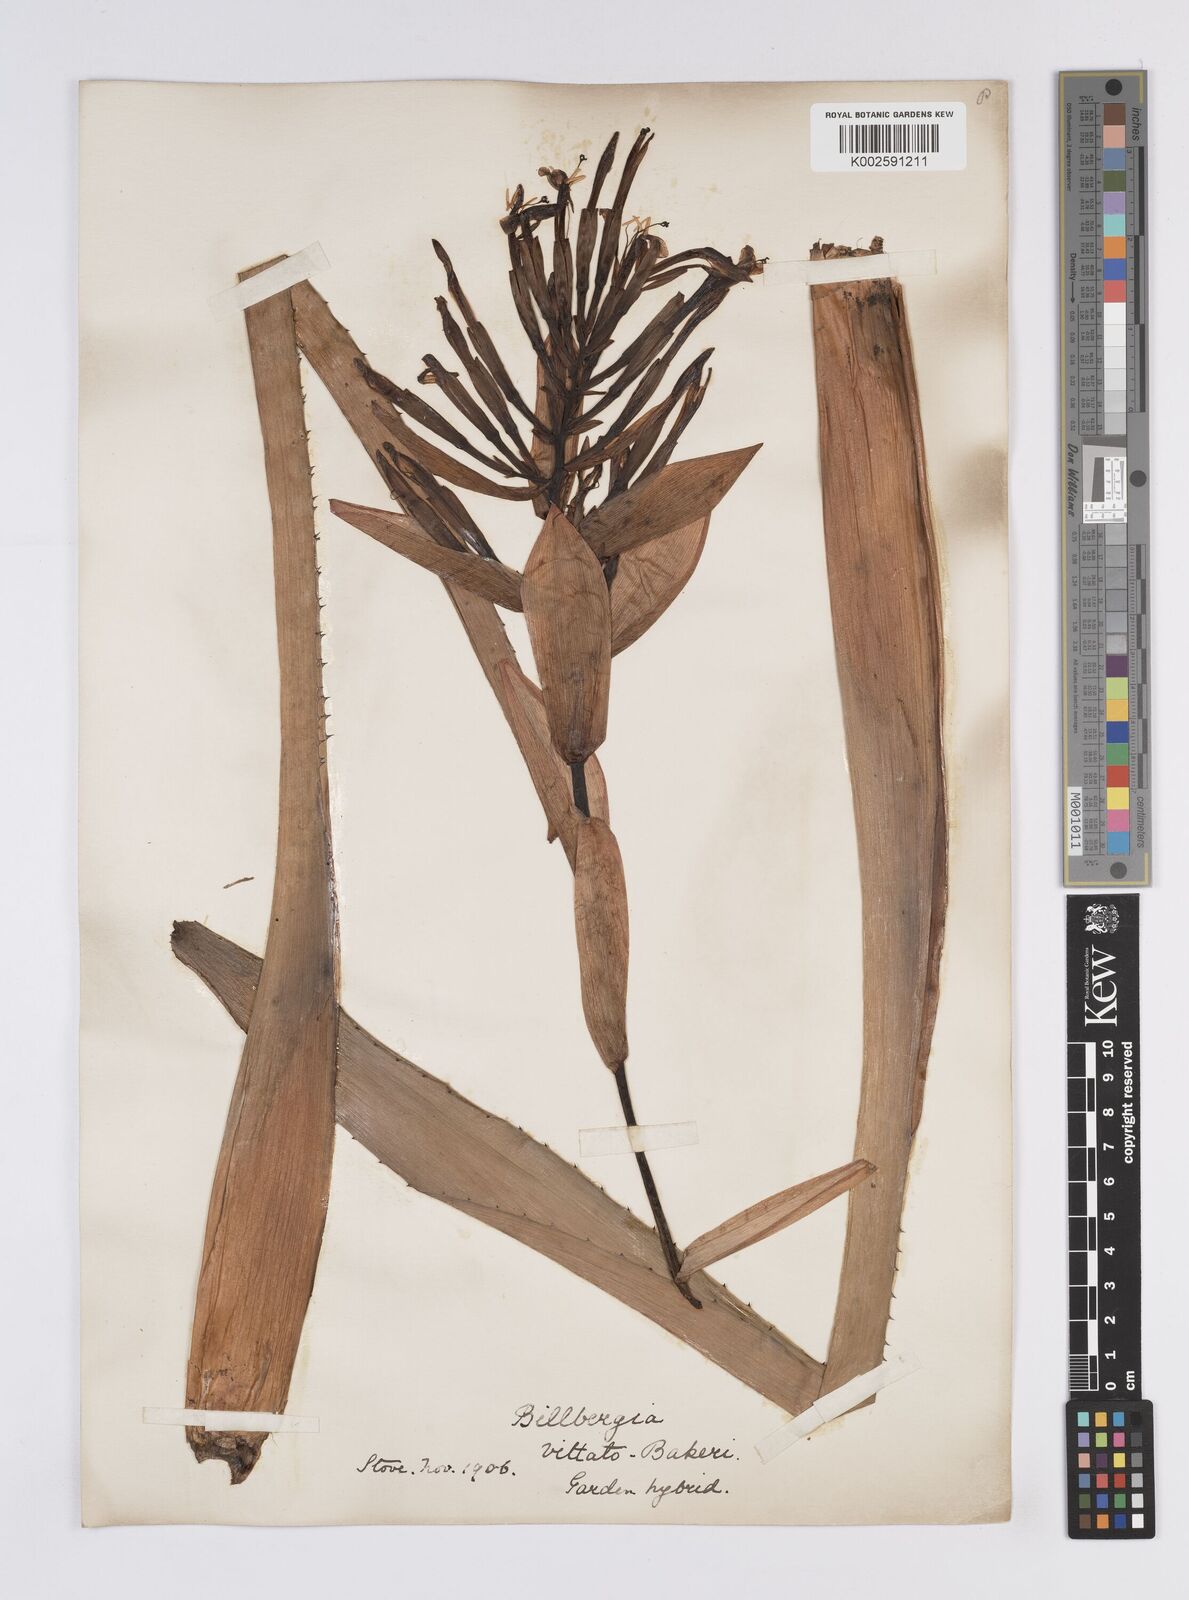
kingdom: Plantae
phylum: Tracheophyta
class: Liliopsida
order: Poales
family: Bromeliaceae
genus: Billbergia
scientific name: Billbergia vittata
